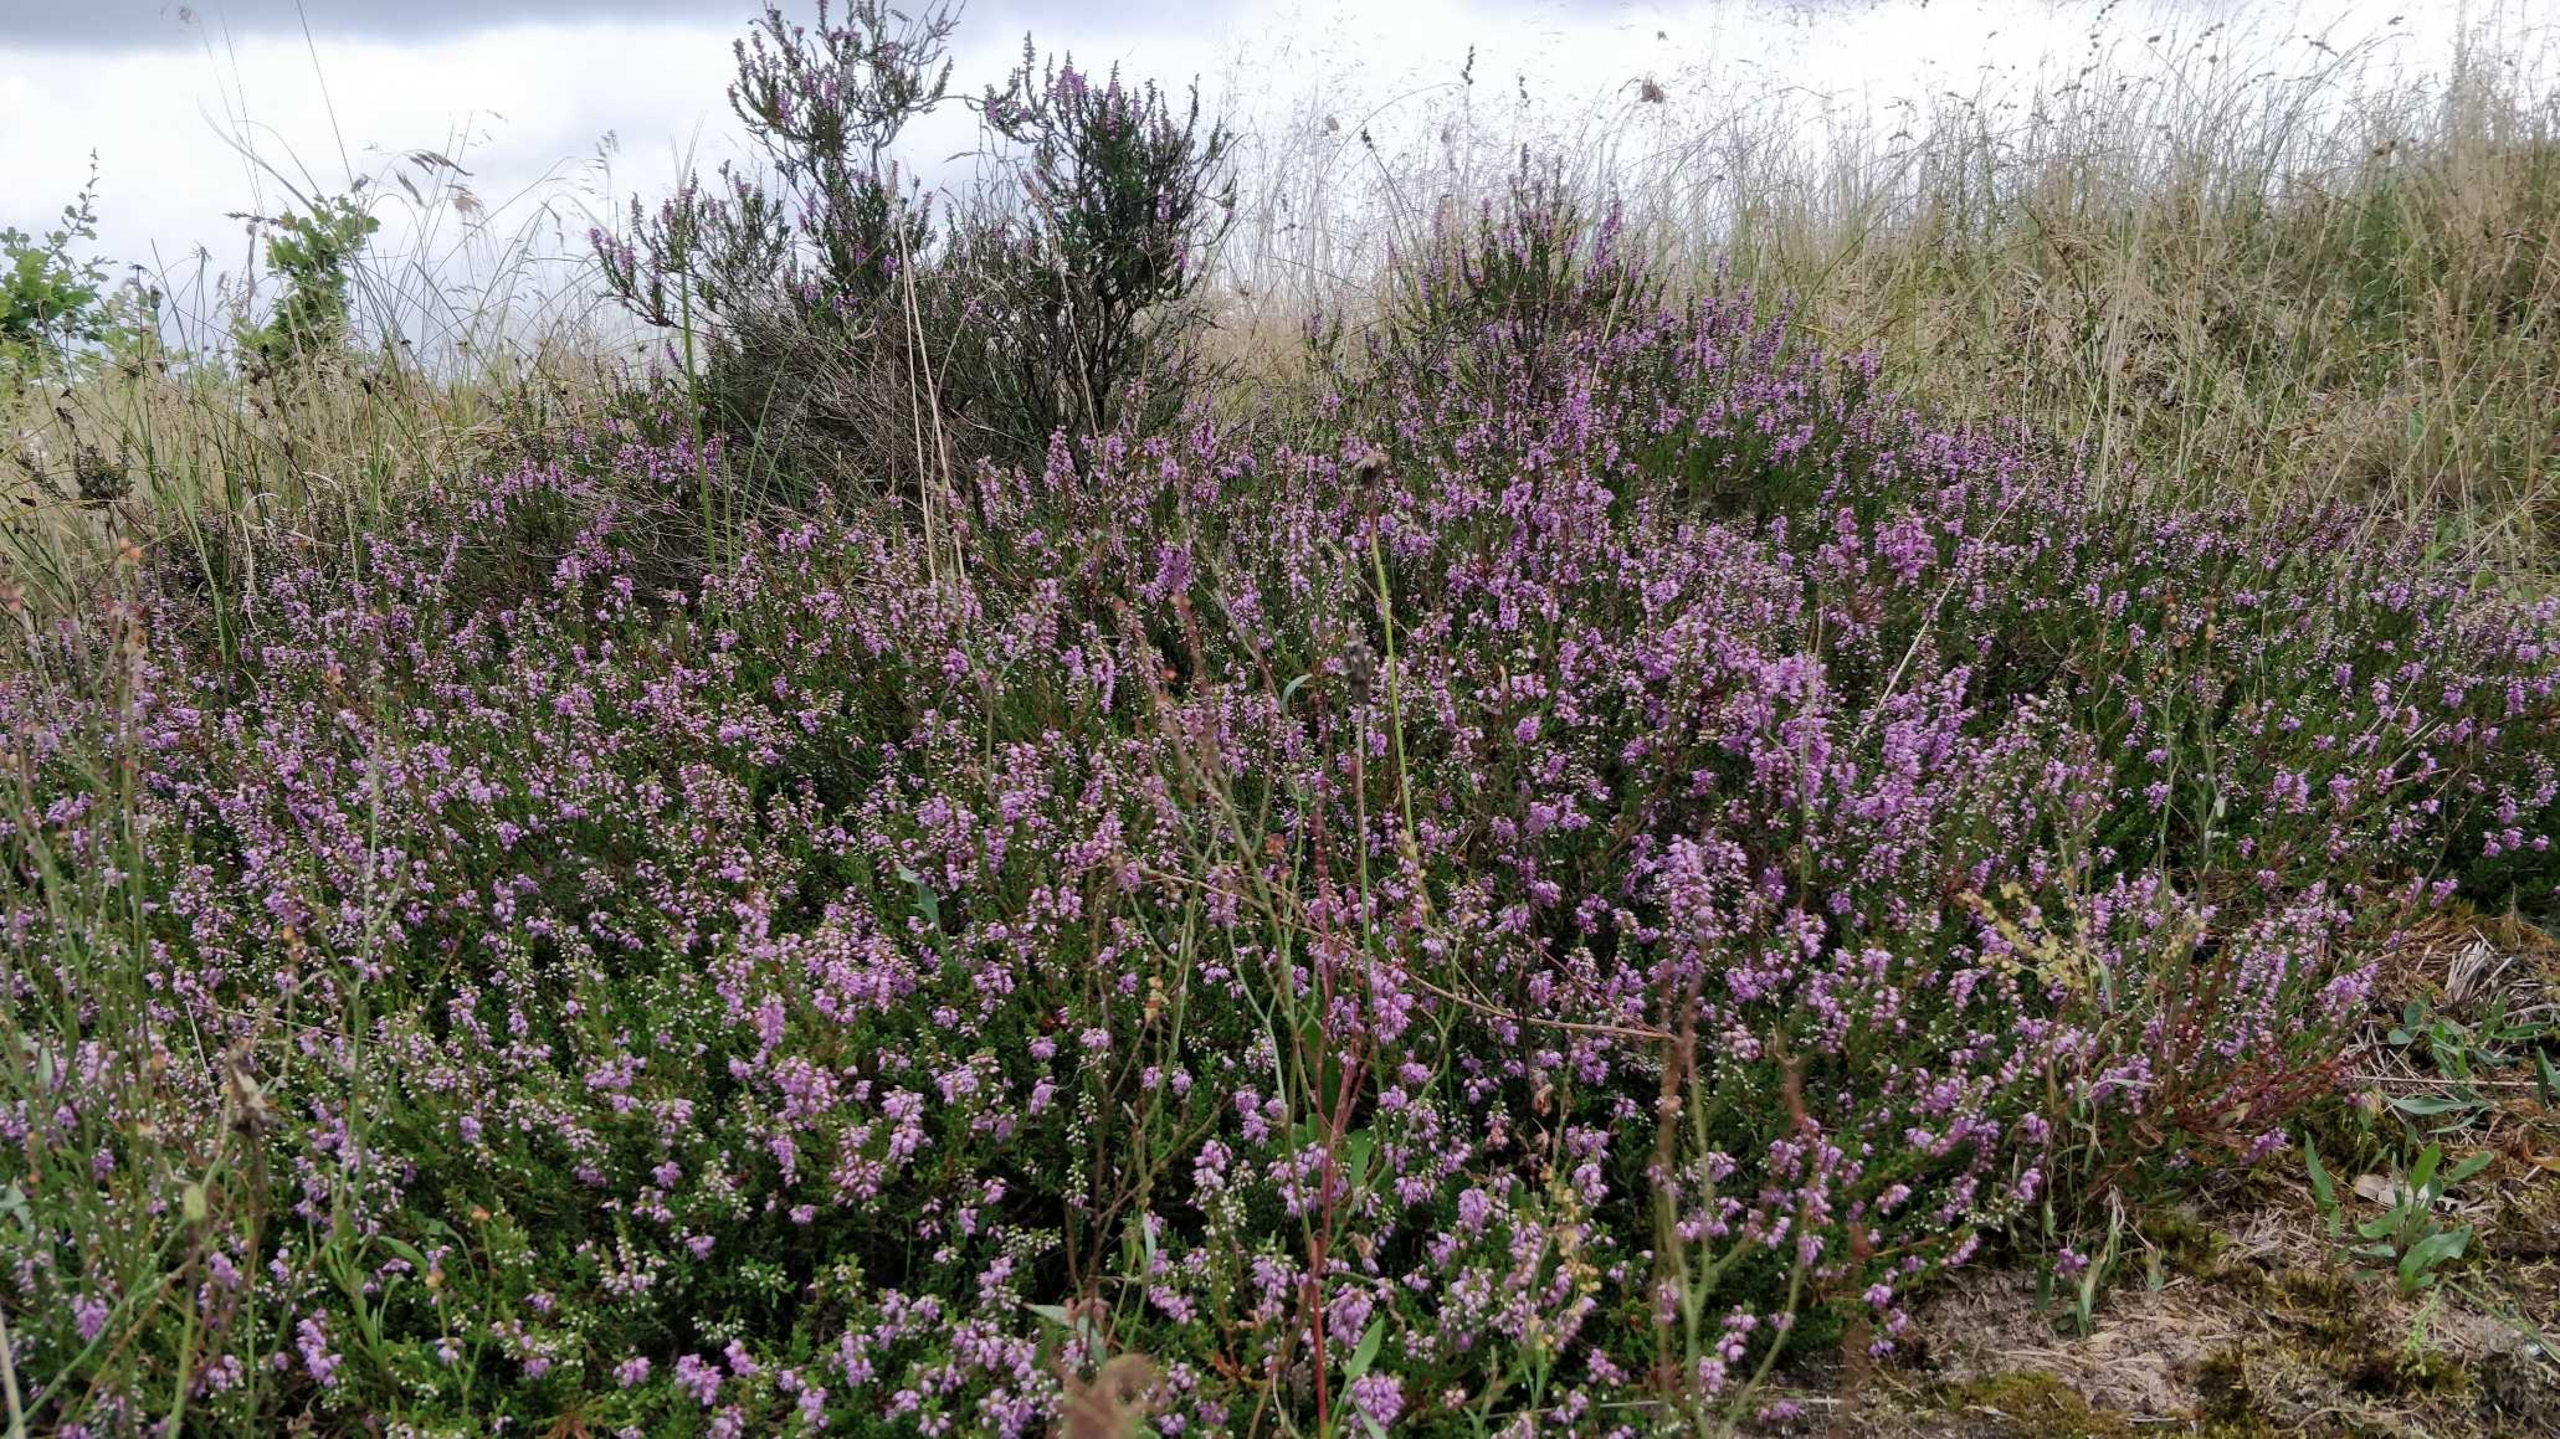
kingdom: Plantae
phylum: Tracheophyta
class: Magnoliopsida
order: Ericales
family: Ericaceae
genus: Calluna
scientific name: Calluna vulgaris
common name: Hedelyng
